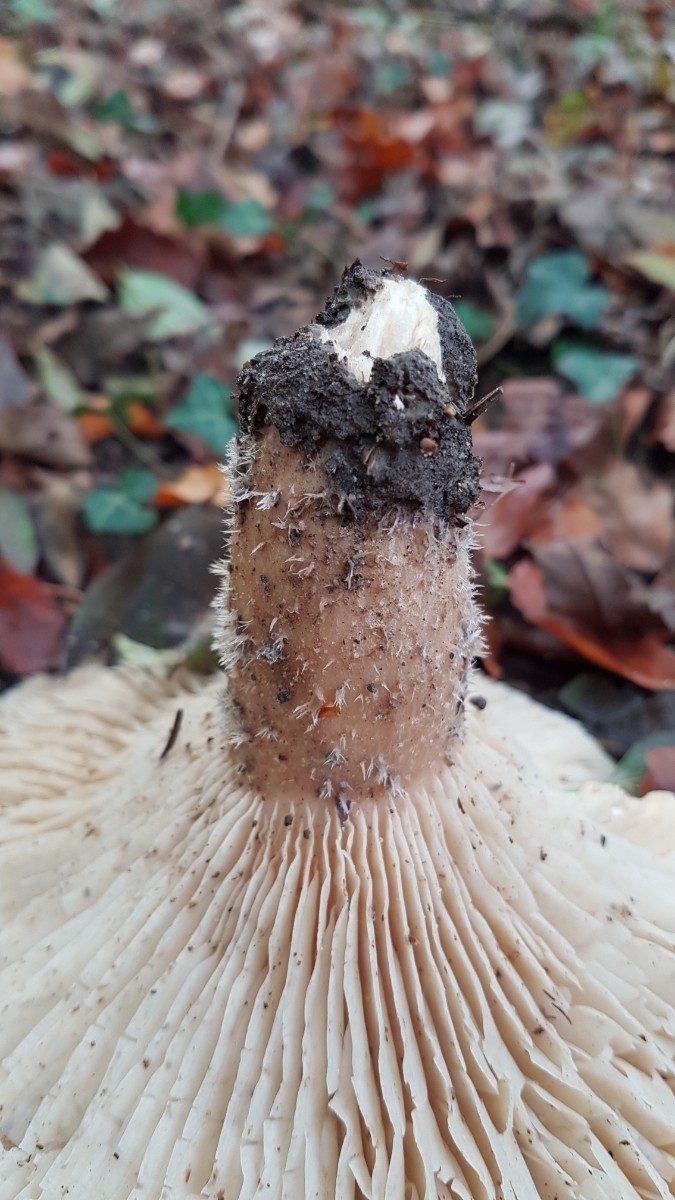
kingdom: Fungi
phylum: Basidiomycota
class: Agaricomycetes
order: Agaricales
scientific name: Agaricales
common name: champignonordenen
